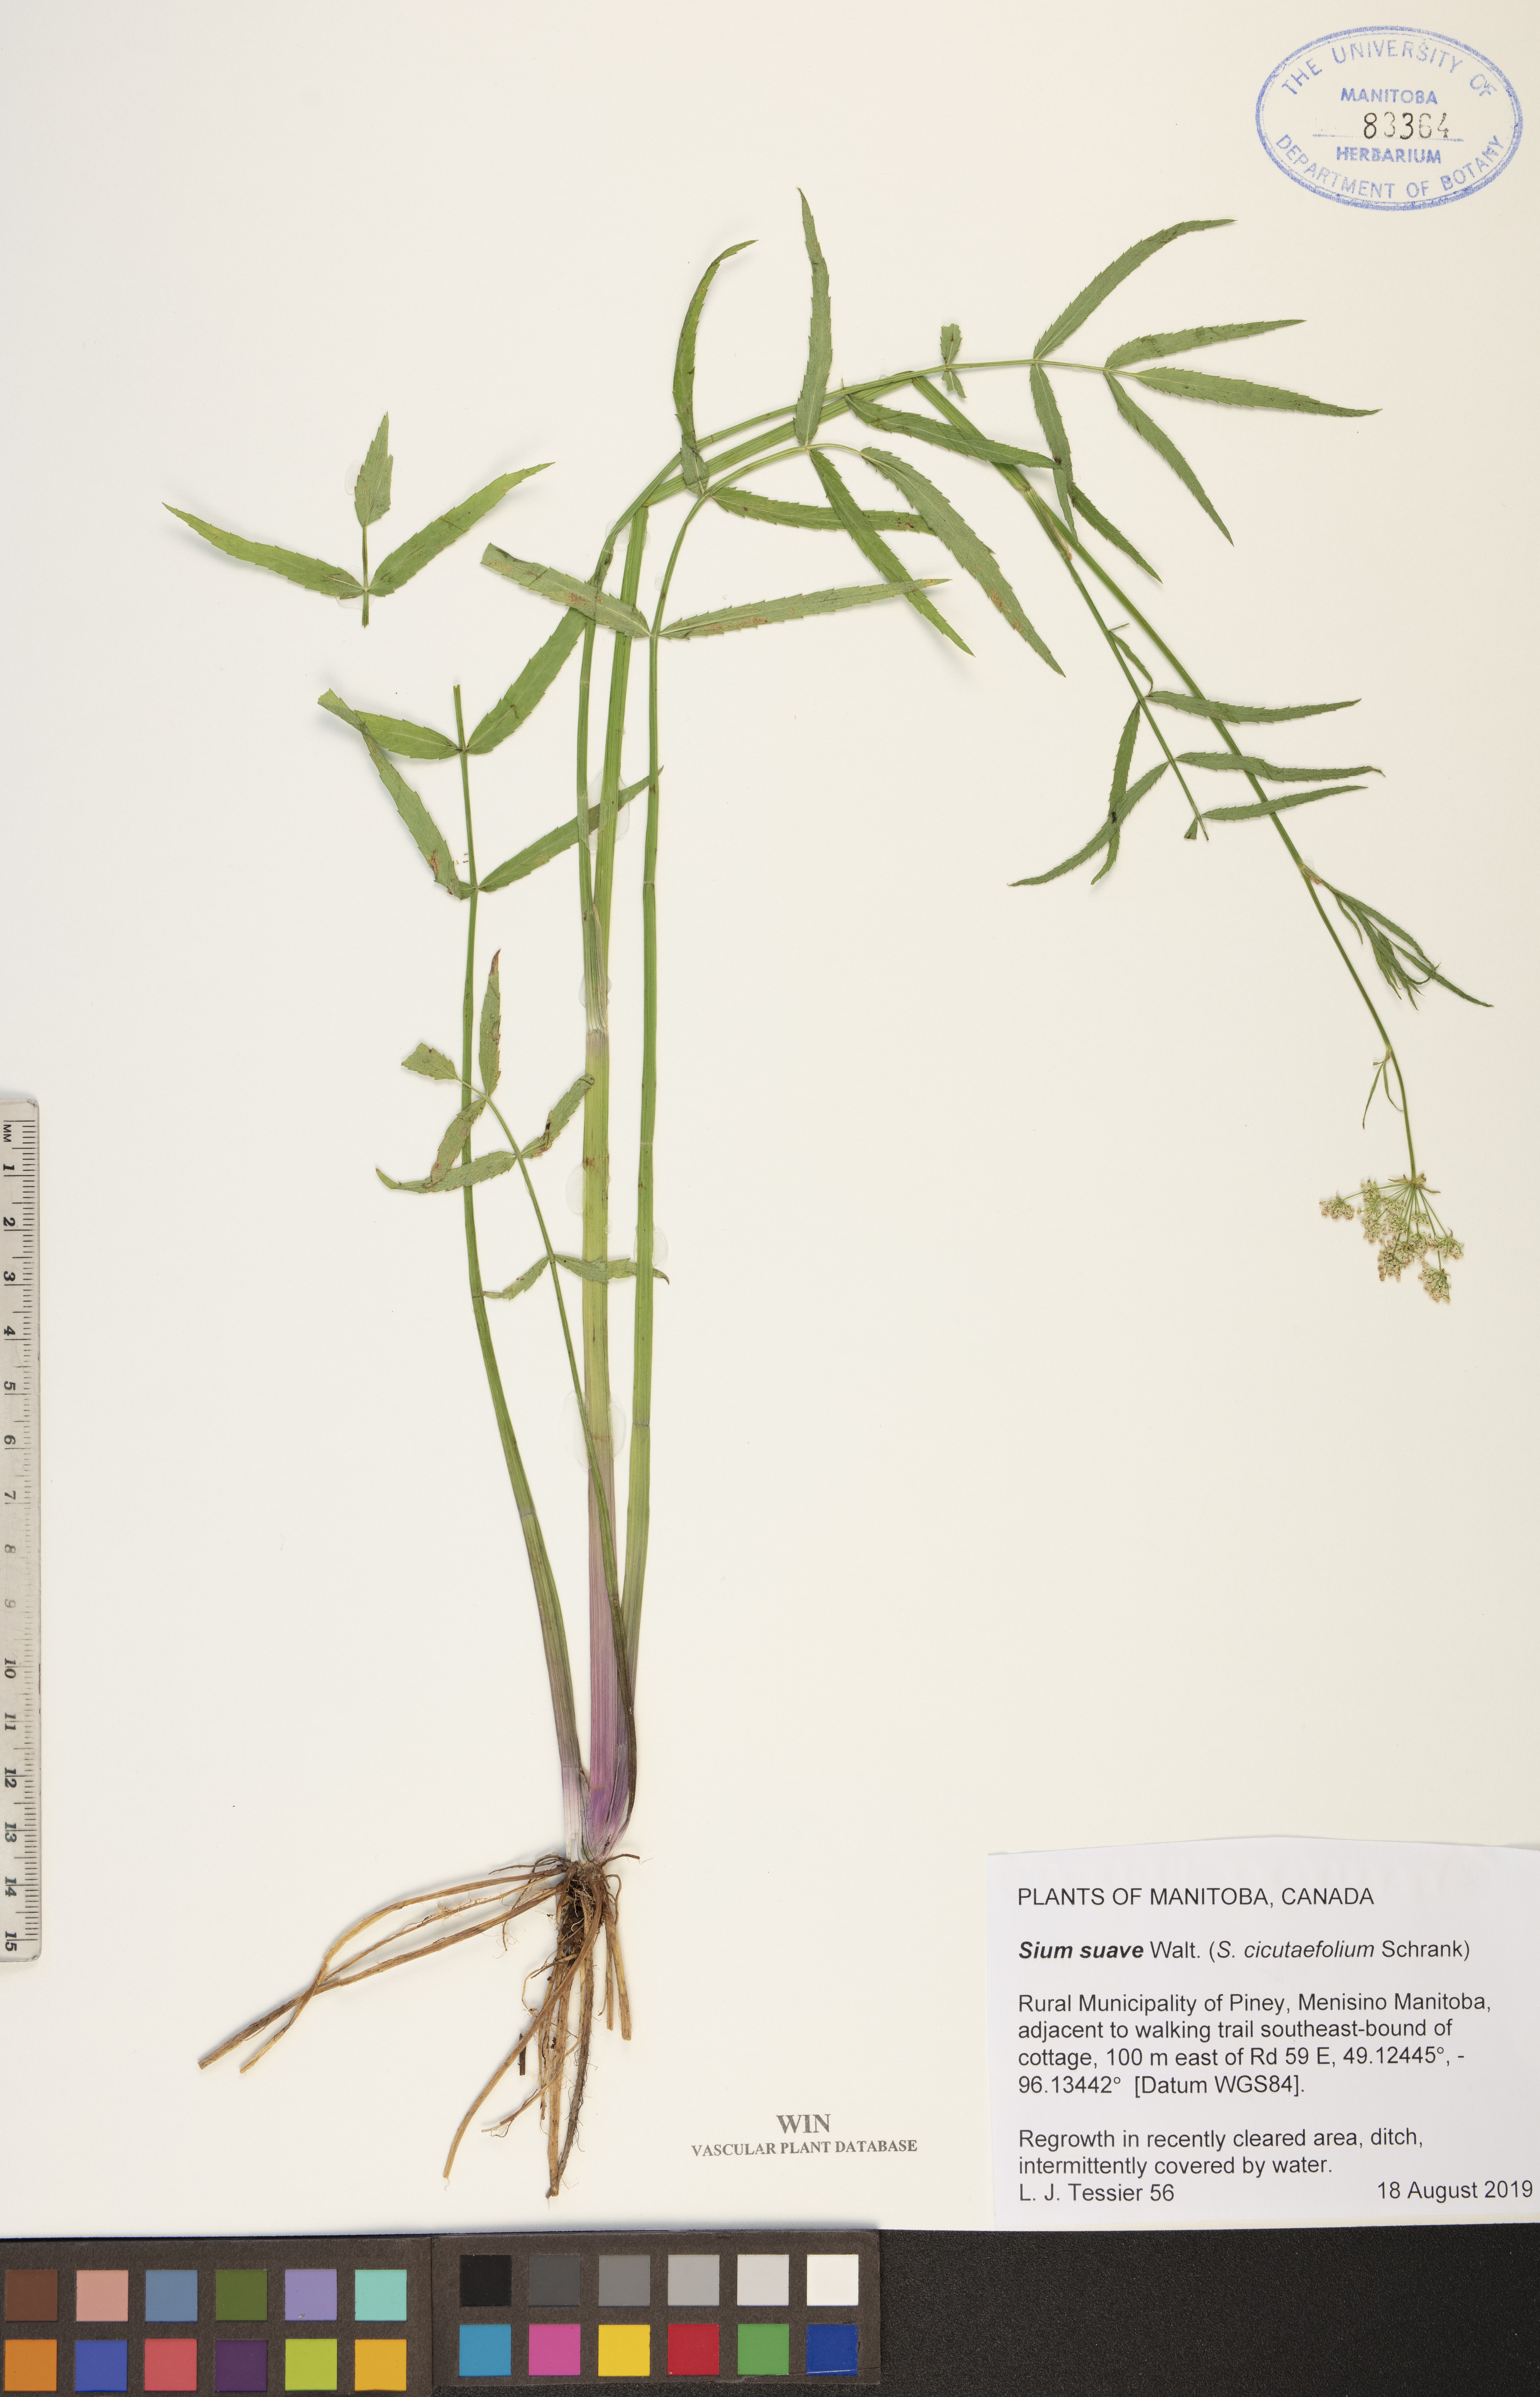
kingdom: Plantae
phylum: Tracheophyta
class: Magnoliopsida
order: Apiales
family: Apiaceae
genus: Sium
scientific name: Sium suave
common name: Hemlock water-parsnip
